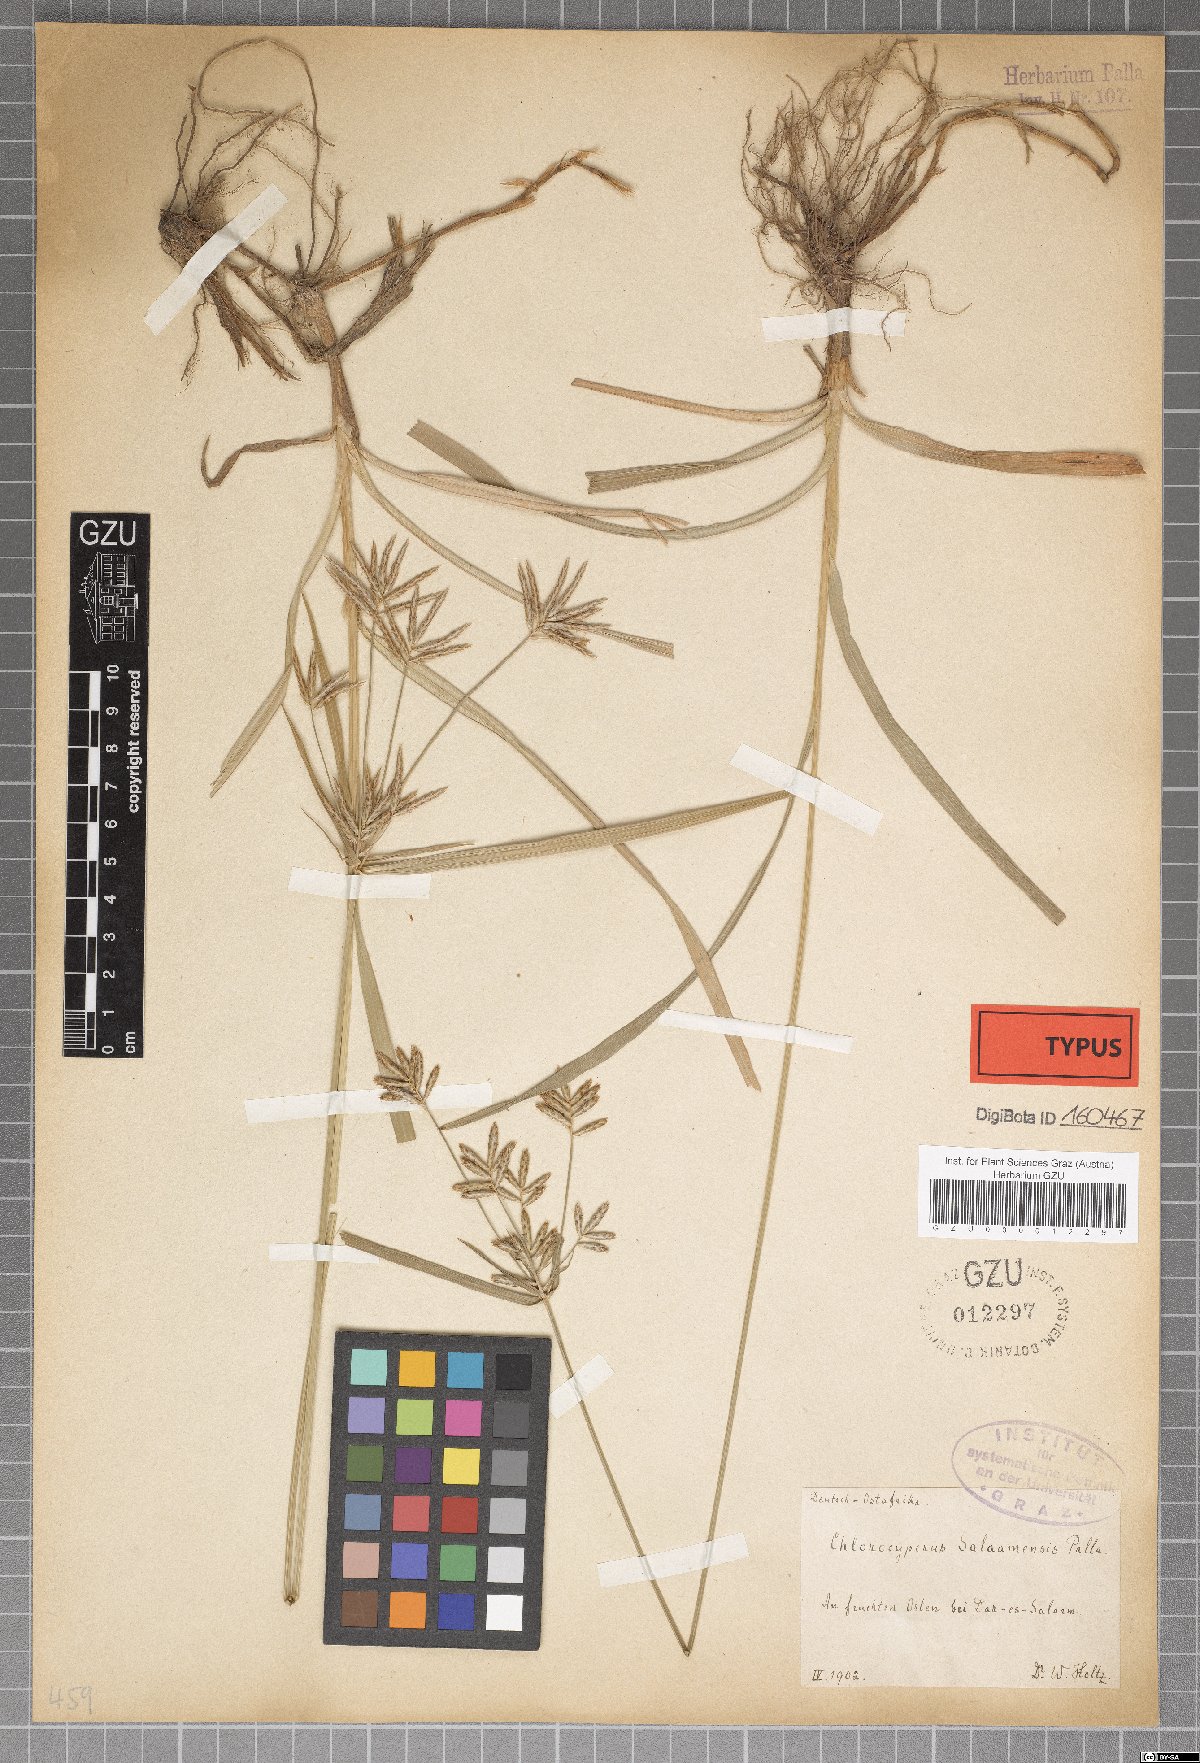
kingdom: Plantae
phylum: Tracheophyta
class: Liliopsida
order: Poales
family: Cyperaceae
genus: Cyperus
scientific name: Cyperus tuberosus
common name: Nut grass
